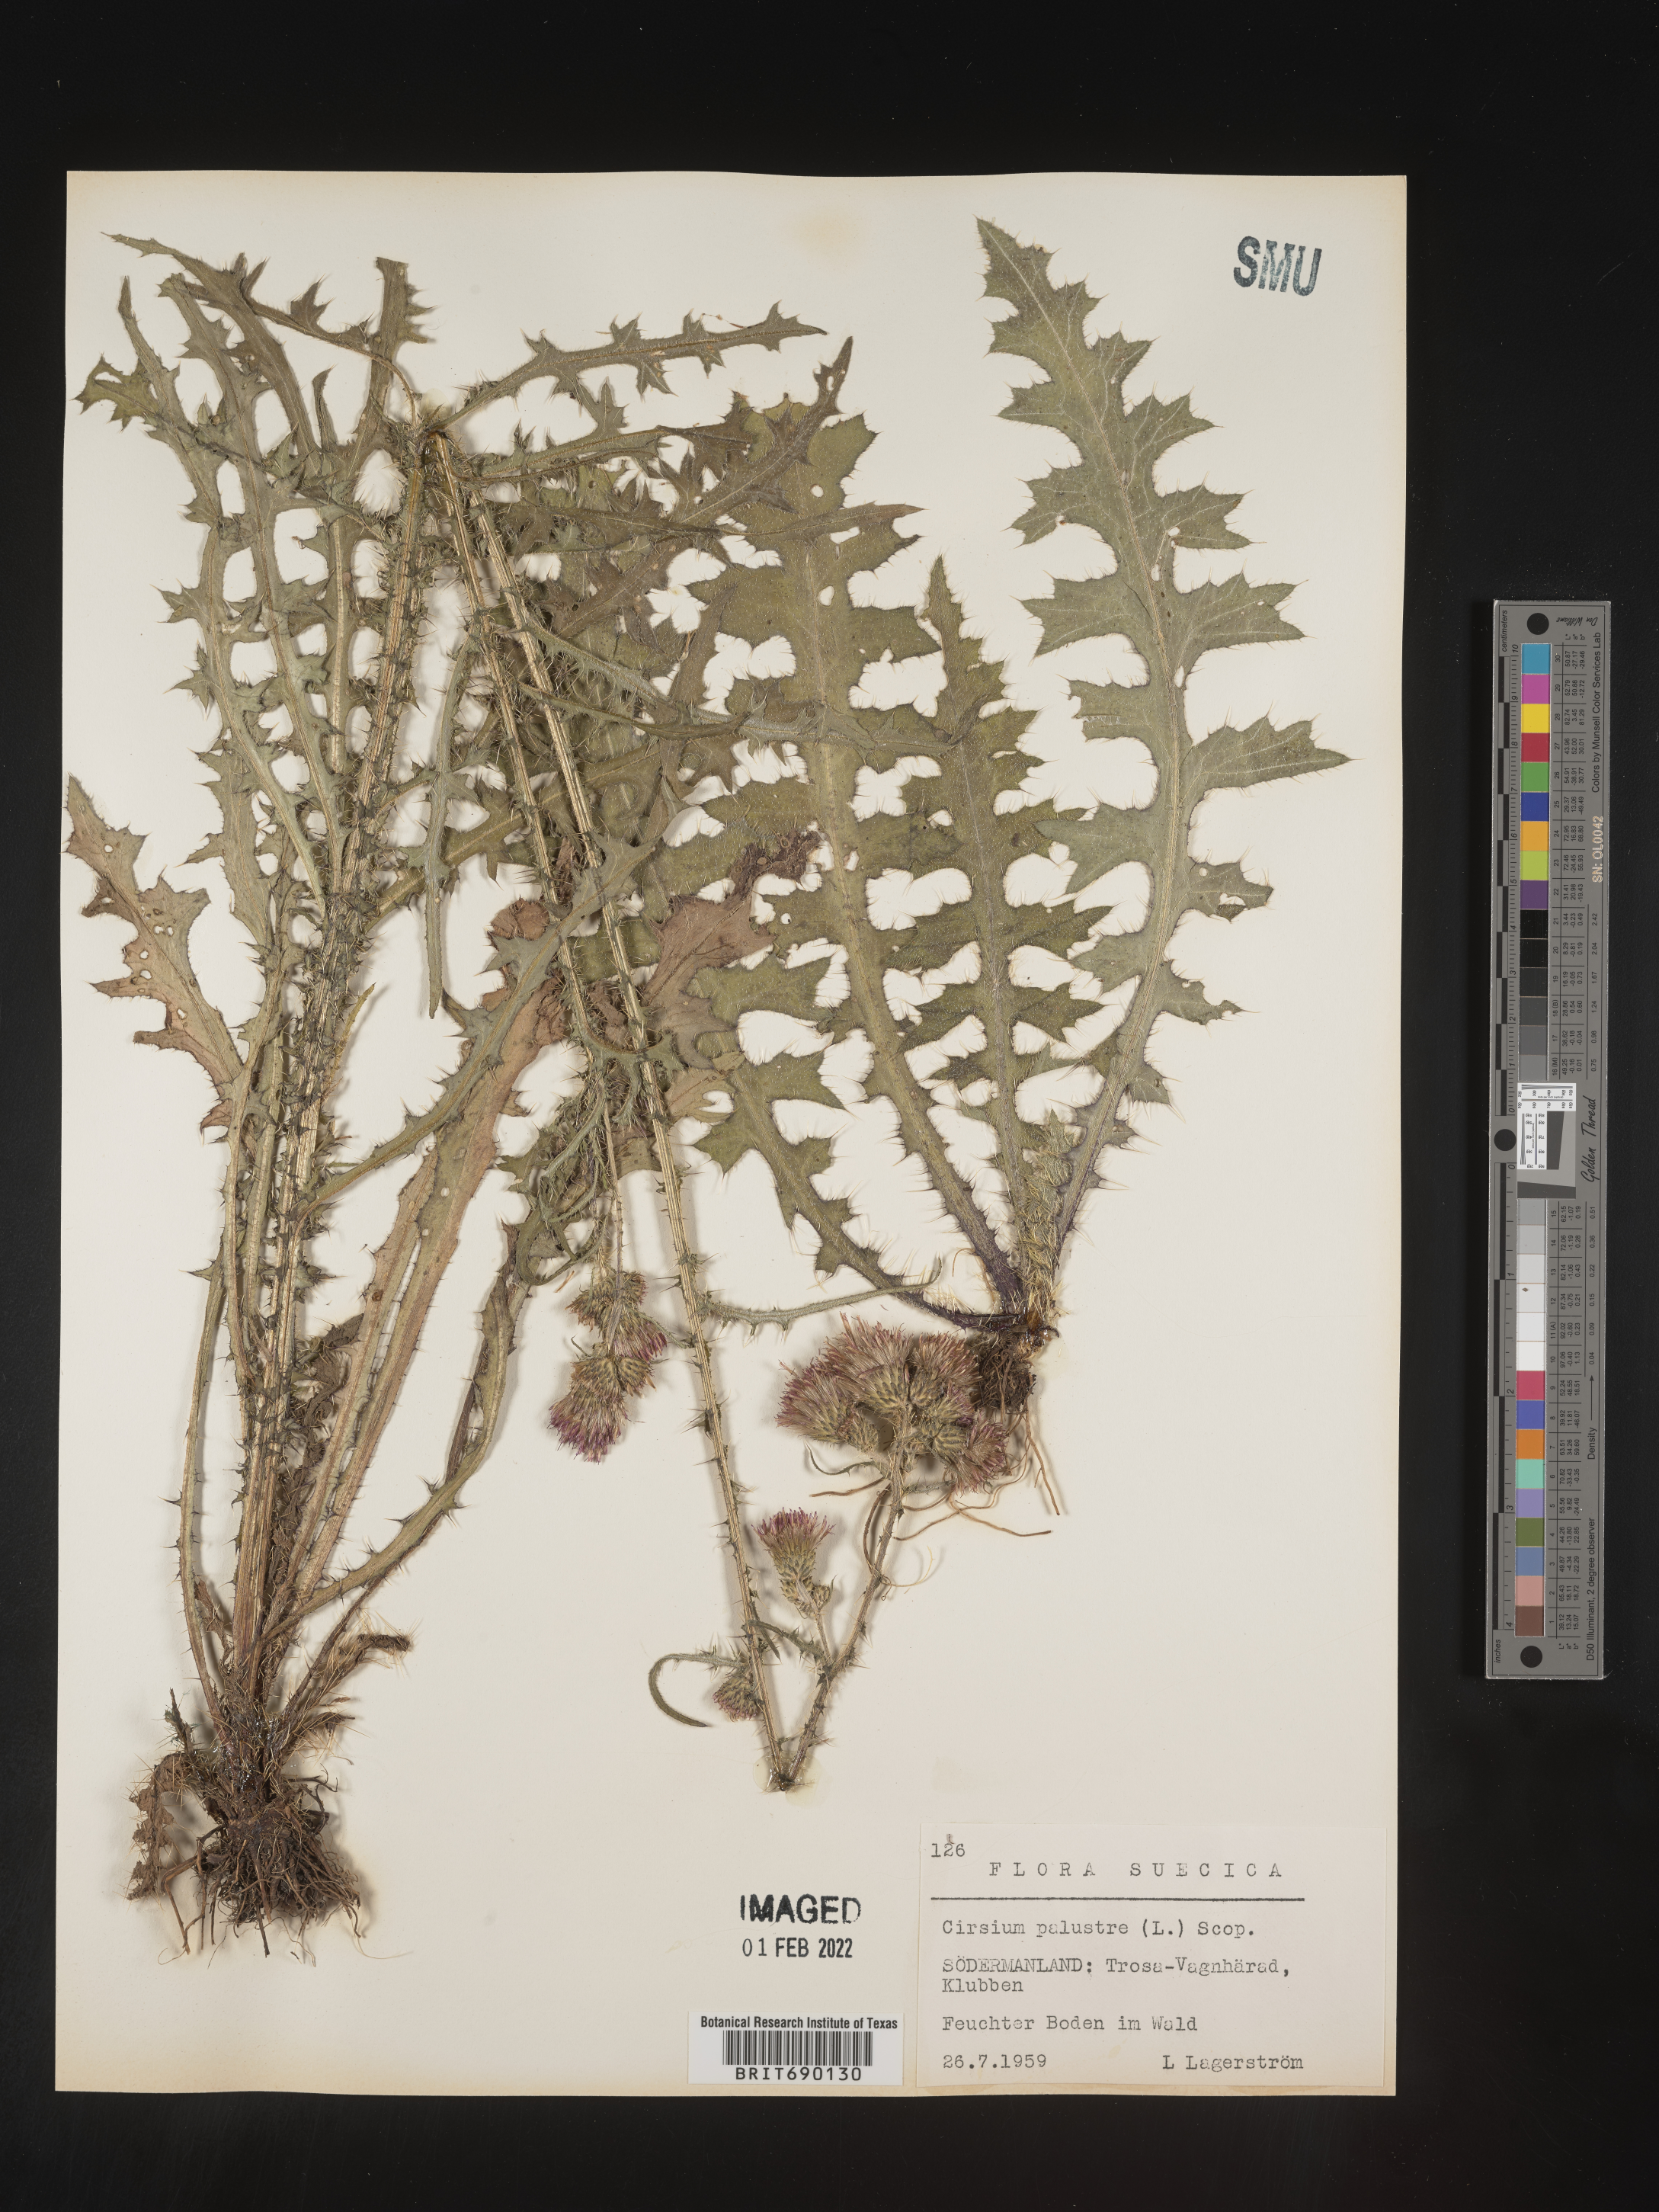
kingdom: Plantae
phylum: Tracheophyta
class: Magnoliopsida
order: Asterales
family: Asteraceae
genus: Cirsium
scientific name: Cirsium
